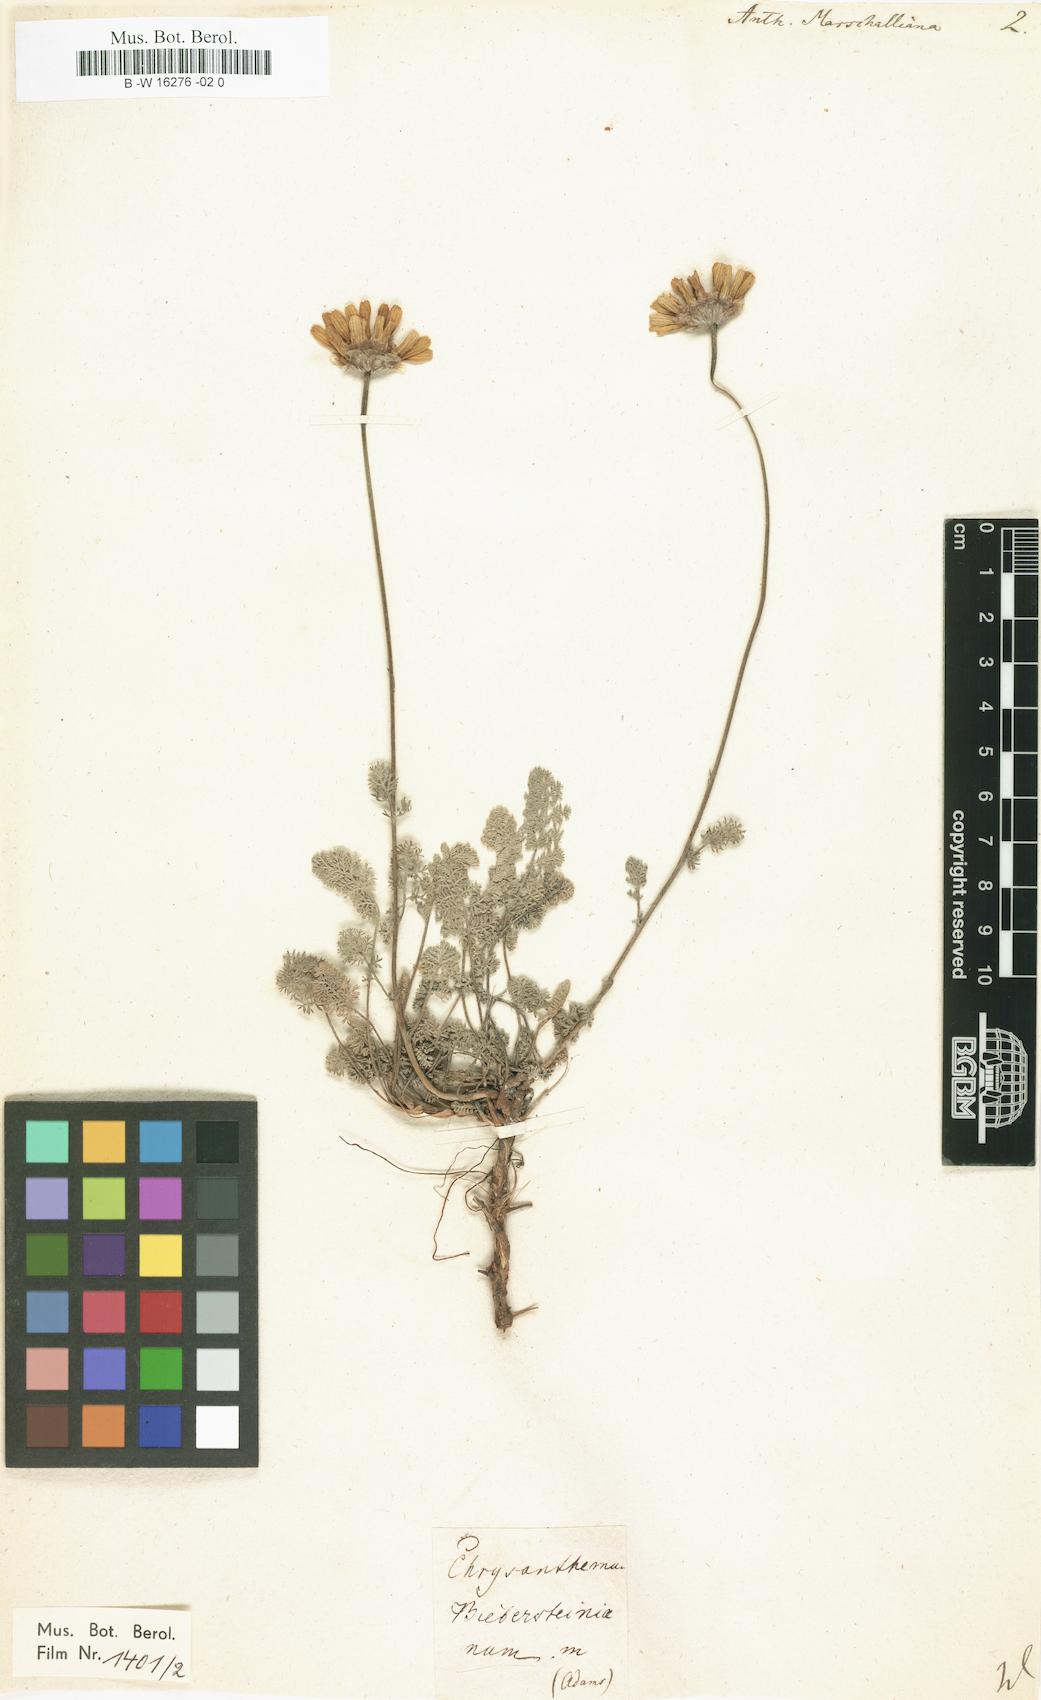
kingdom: Plantae
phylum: Tracheophyta
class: Magnoliopsida
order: Asterales
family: Asteraceae
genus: Archanthemis
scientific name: Archanthemis marschalliana
